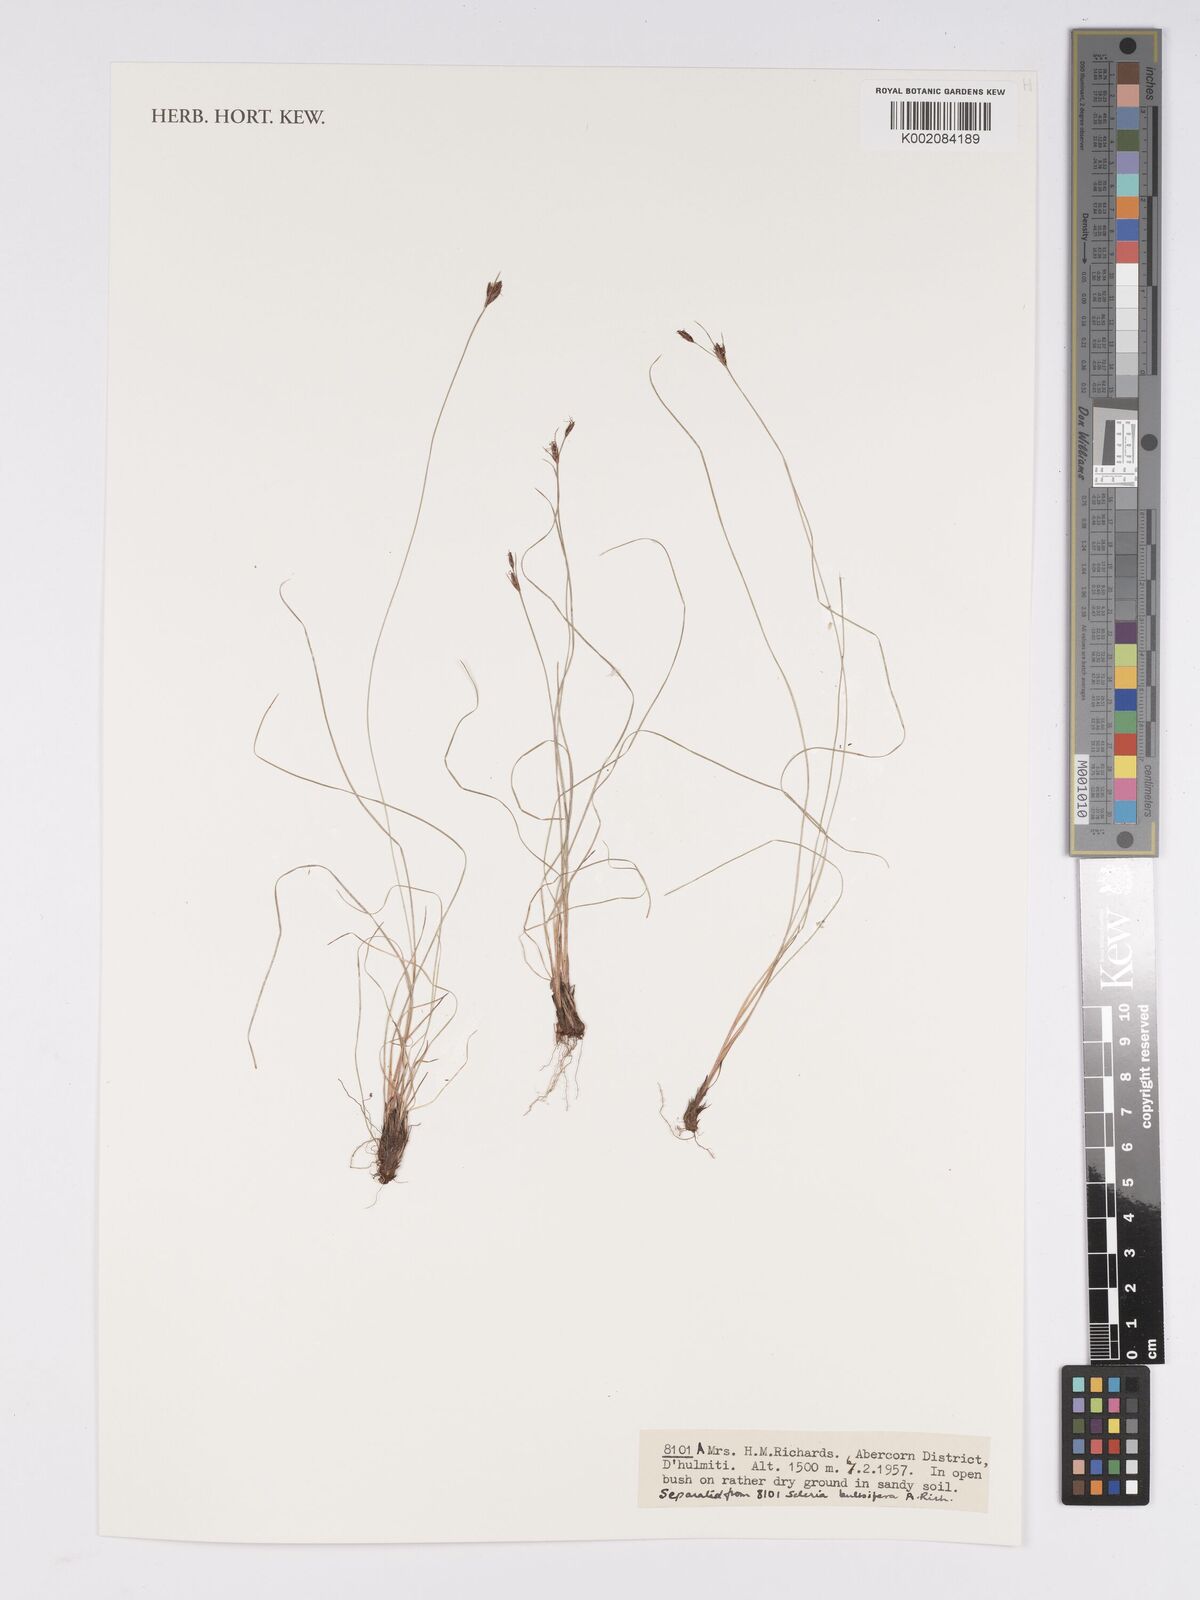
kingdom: Plantae
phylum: Tracheophyta
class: Liliopsida
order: Poales
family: Cyperaceae
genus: Bulbostylis
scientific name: Bulbostylis
